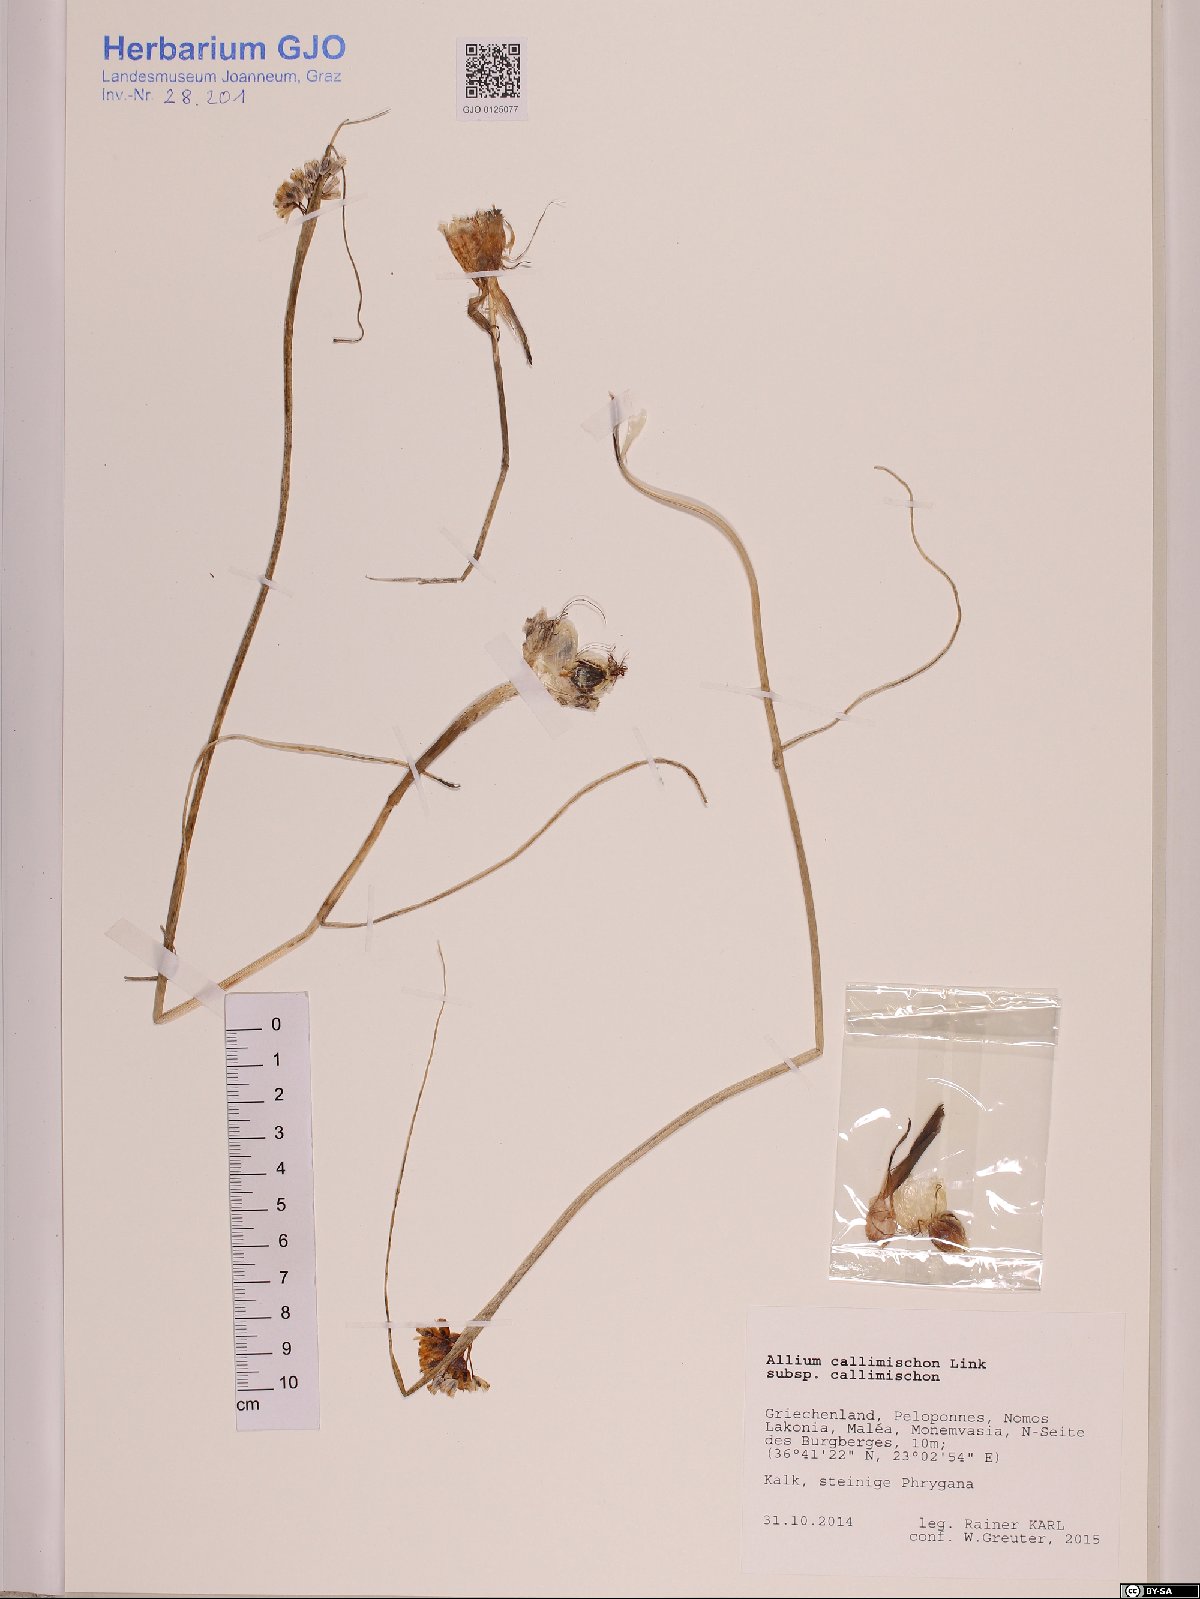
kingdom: Plantae
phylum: Tracheophyta
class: Liliopsida
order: Asparagales
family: Amaryllidaceae
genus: Allium
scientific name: Allium callimischon
